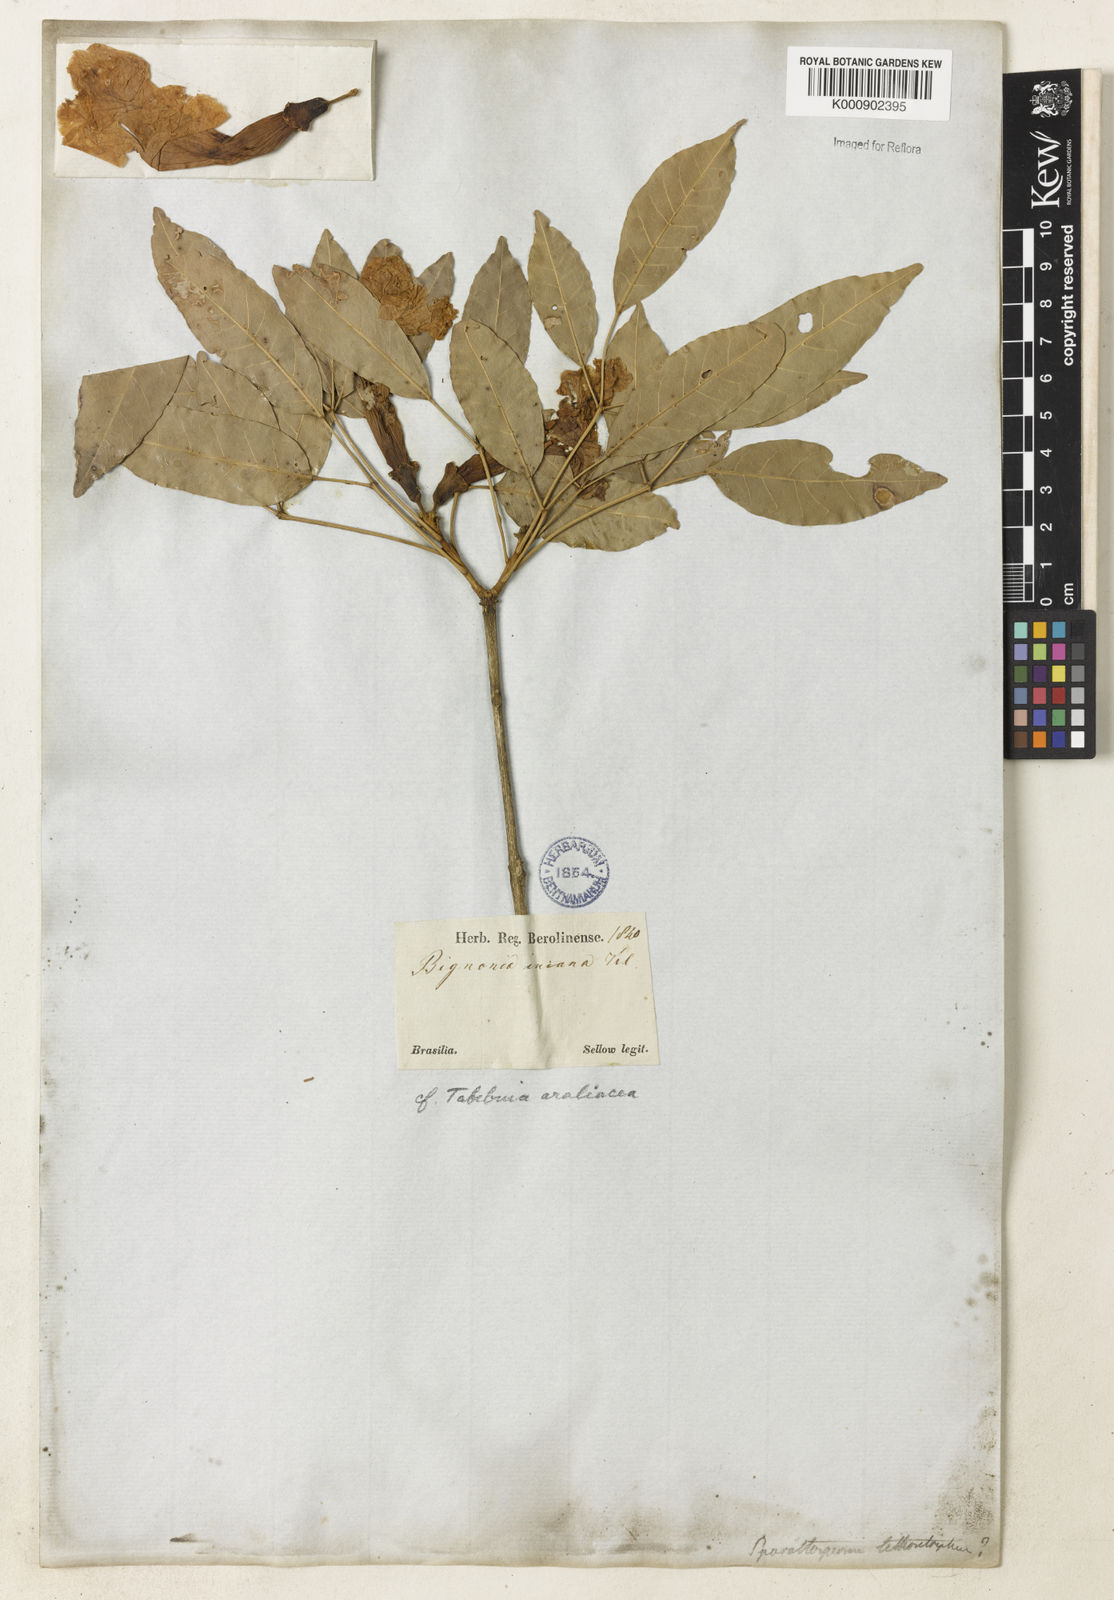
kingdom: Plantae
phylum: Tracheophyta
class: Magnoliopsida
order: Lamiales
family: Bignoniaceae
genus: Handroanthus
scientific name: Handroanthus serratifolius
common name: Yellow ipe
